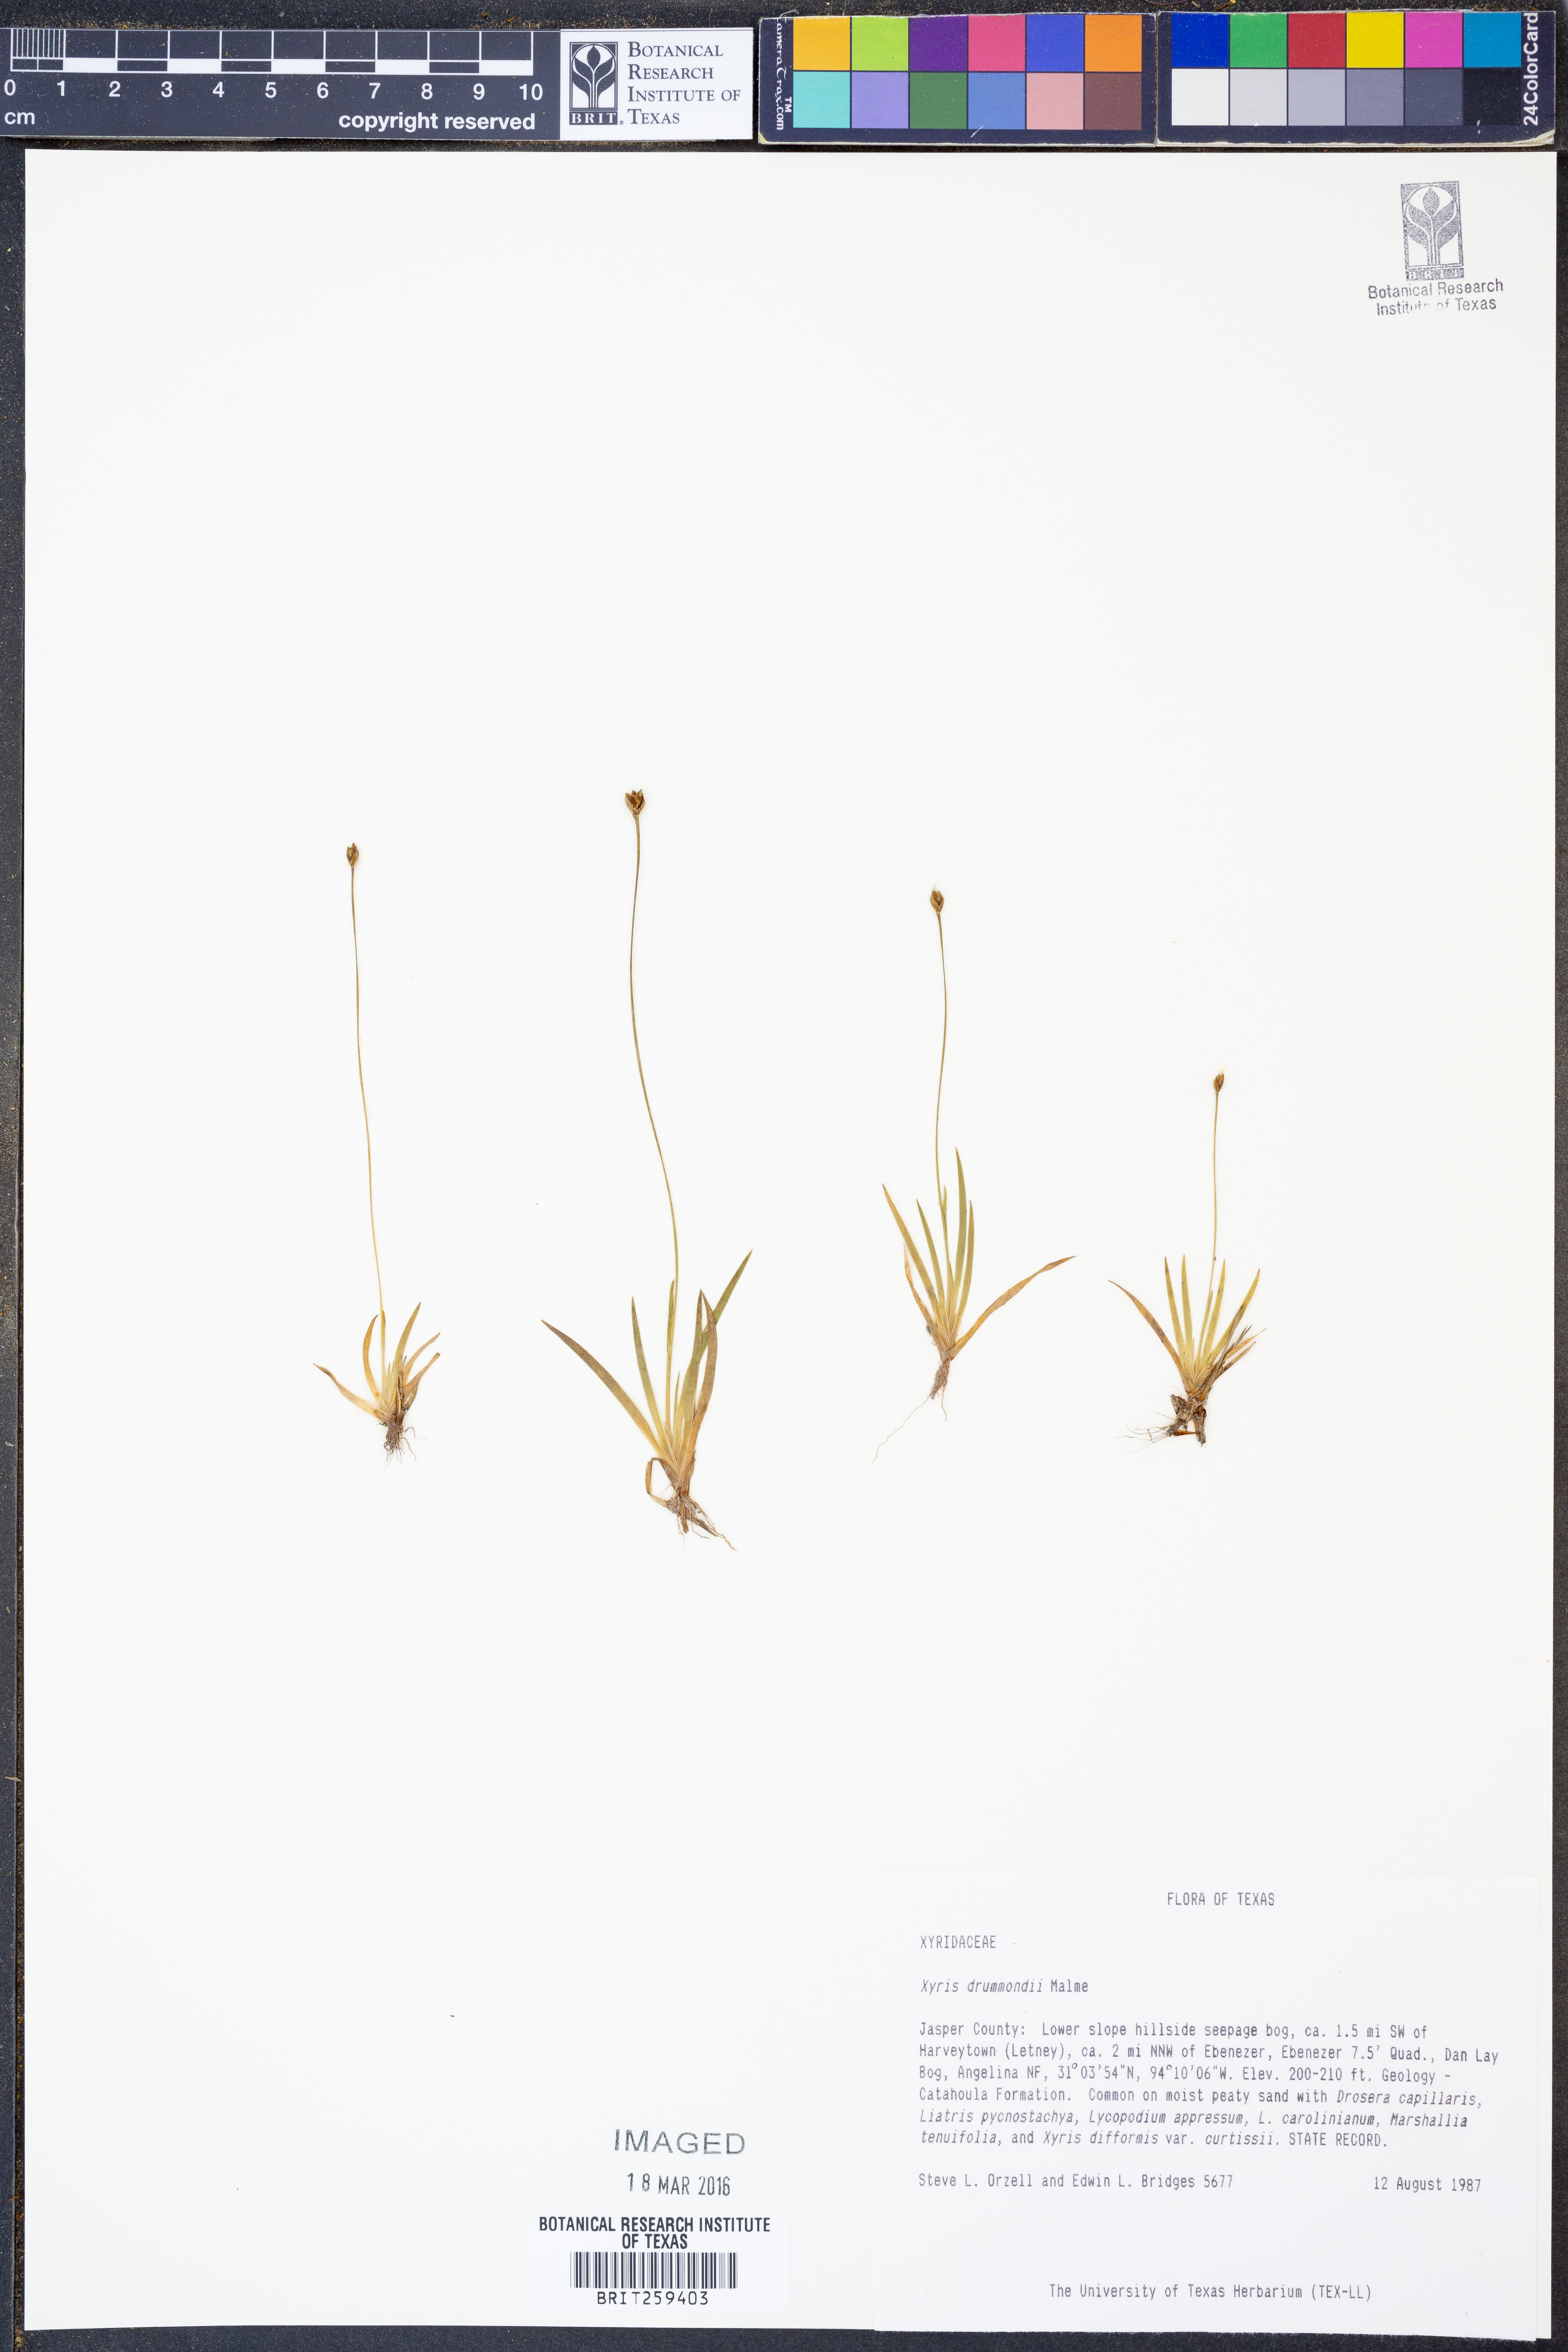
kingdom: Plantae
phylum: Tracheophyta
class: Liliopsida
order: Poales
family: Xyridaceae
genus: Xyris
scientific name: Xyris drummondii
